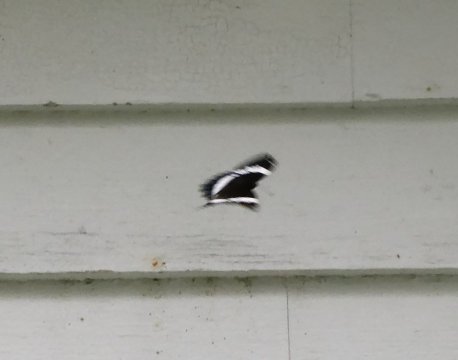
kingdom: Animalia
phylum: Arthropoda
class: Insecta
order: Lepidoptera
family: Nymphalidae
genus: Limenitis
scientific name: Limenitis arthemis
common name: Red-spotted Admiral
